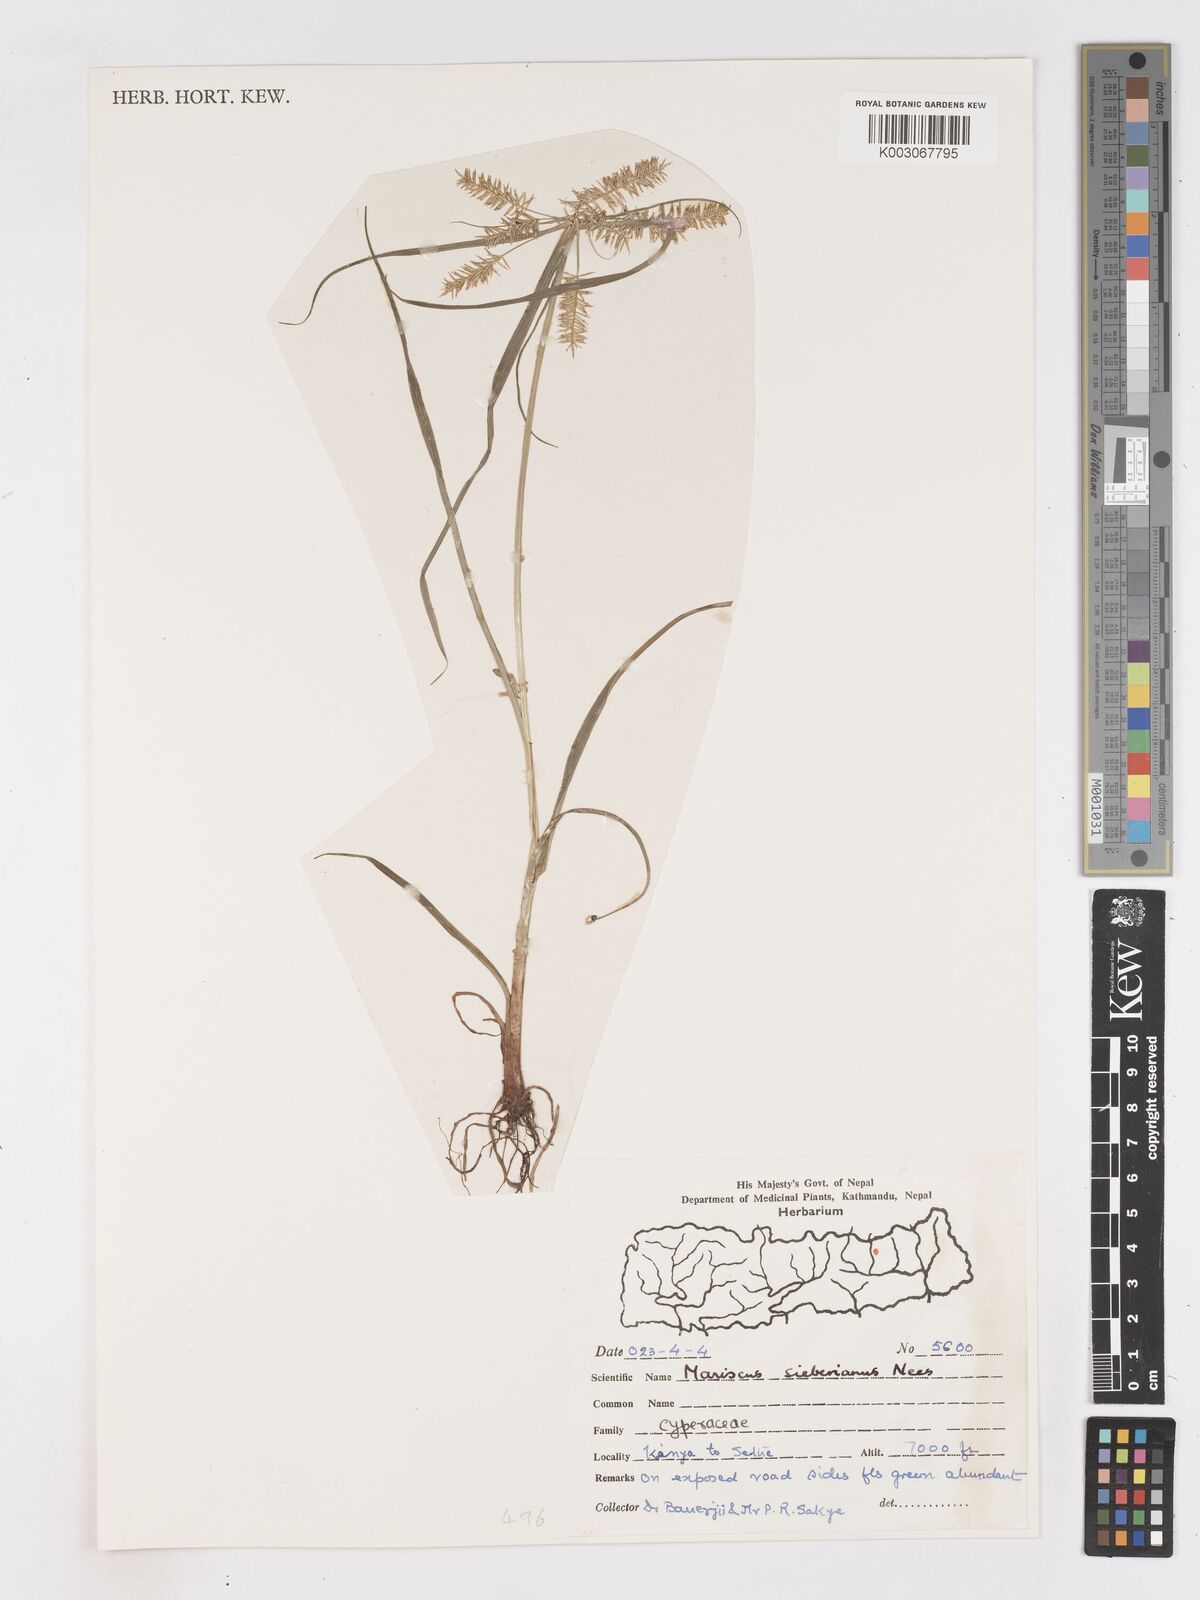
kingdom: Plantae
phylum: Tracheophyta
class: Liliopsida
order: Poales
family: Cyperaceae
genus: Cyperus
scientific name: Cyperus cyperoides
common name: Pacific island flat sedge
